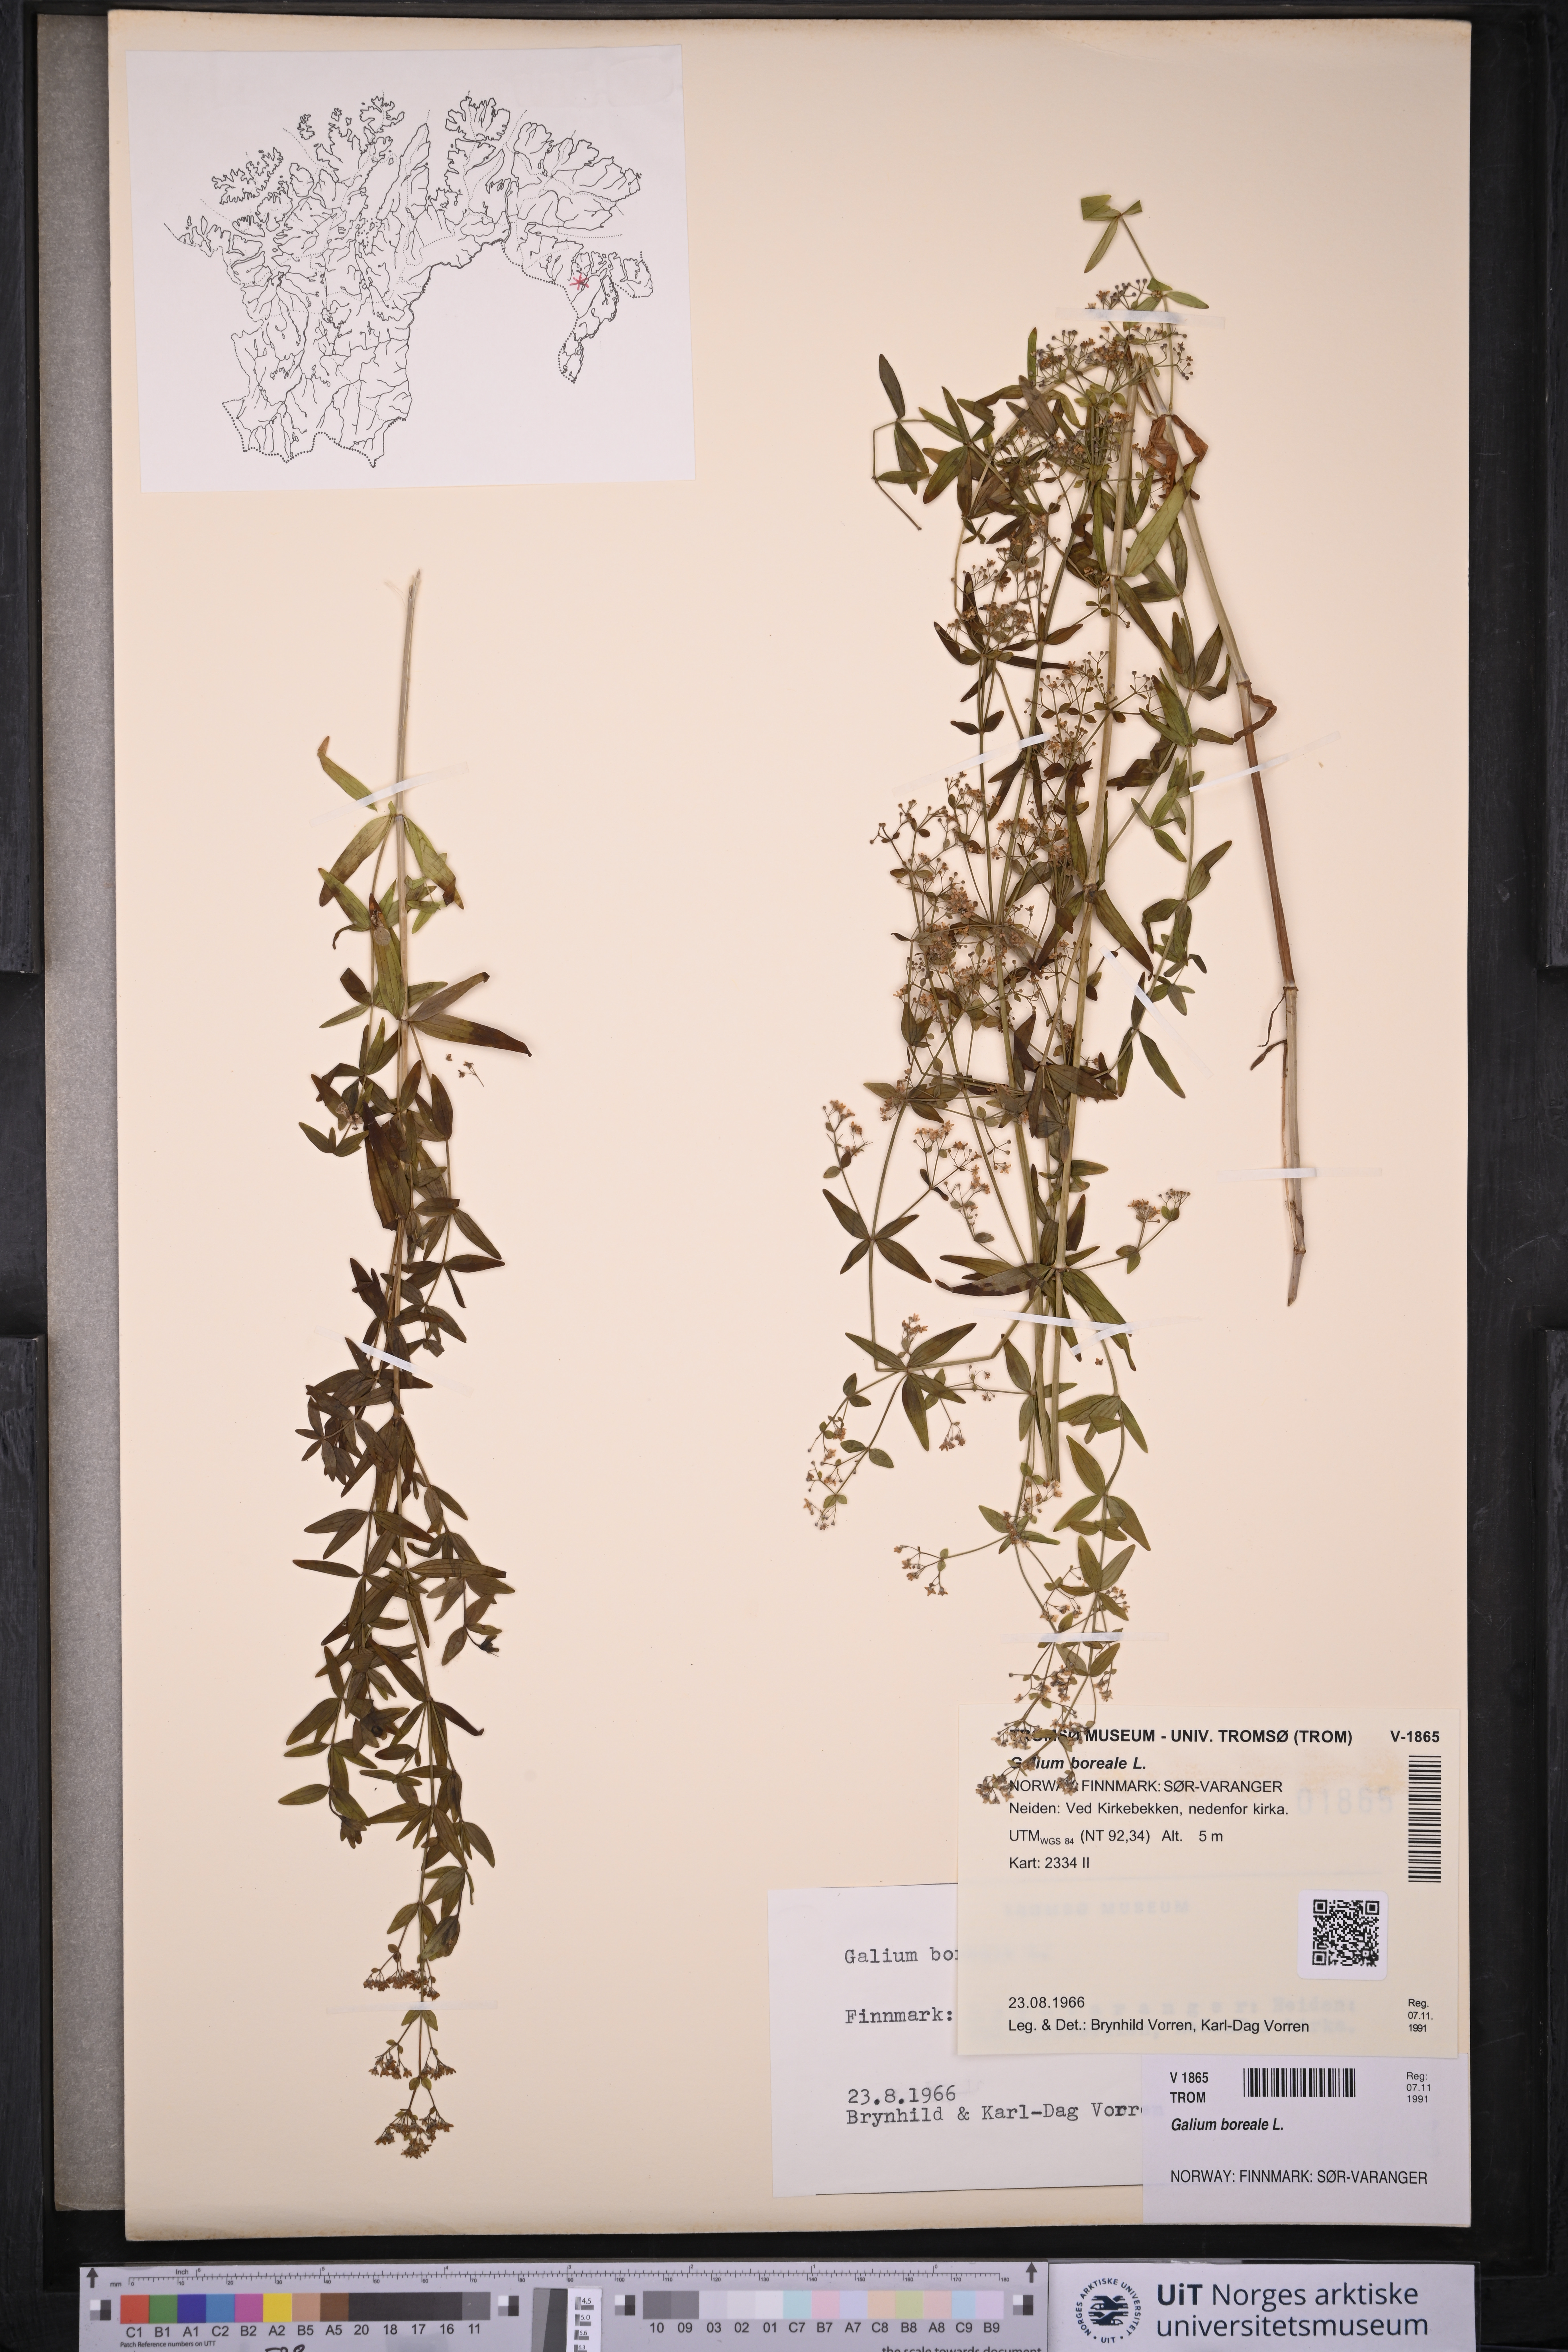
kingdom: Plantae
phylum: Tracheophyta
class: Magnoliopsida
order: Gentianales
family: Rubiaceae
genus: Galium
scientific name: Galium boreale
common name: Northern bedstraw
